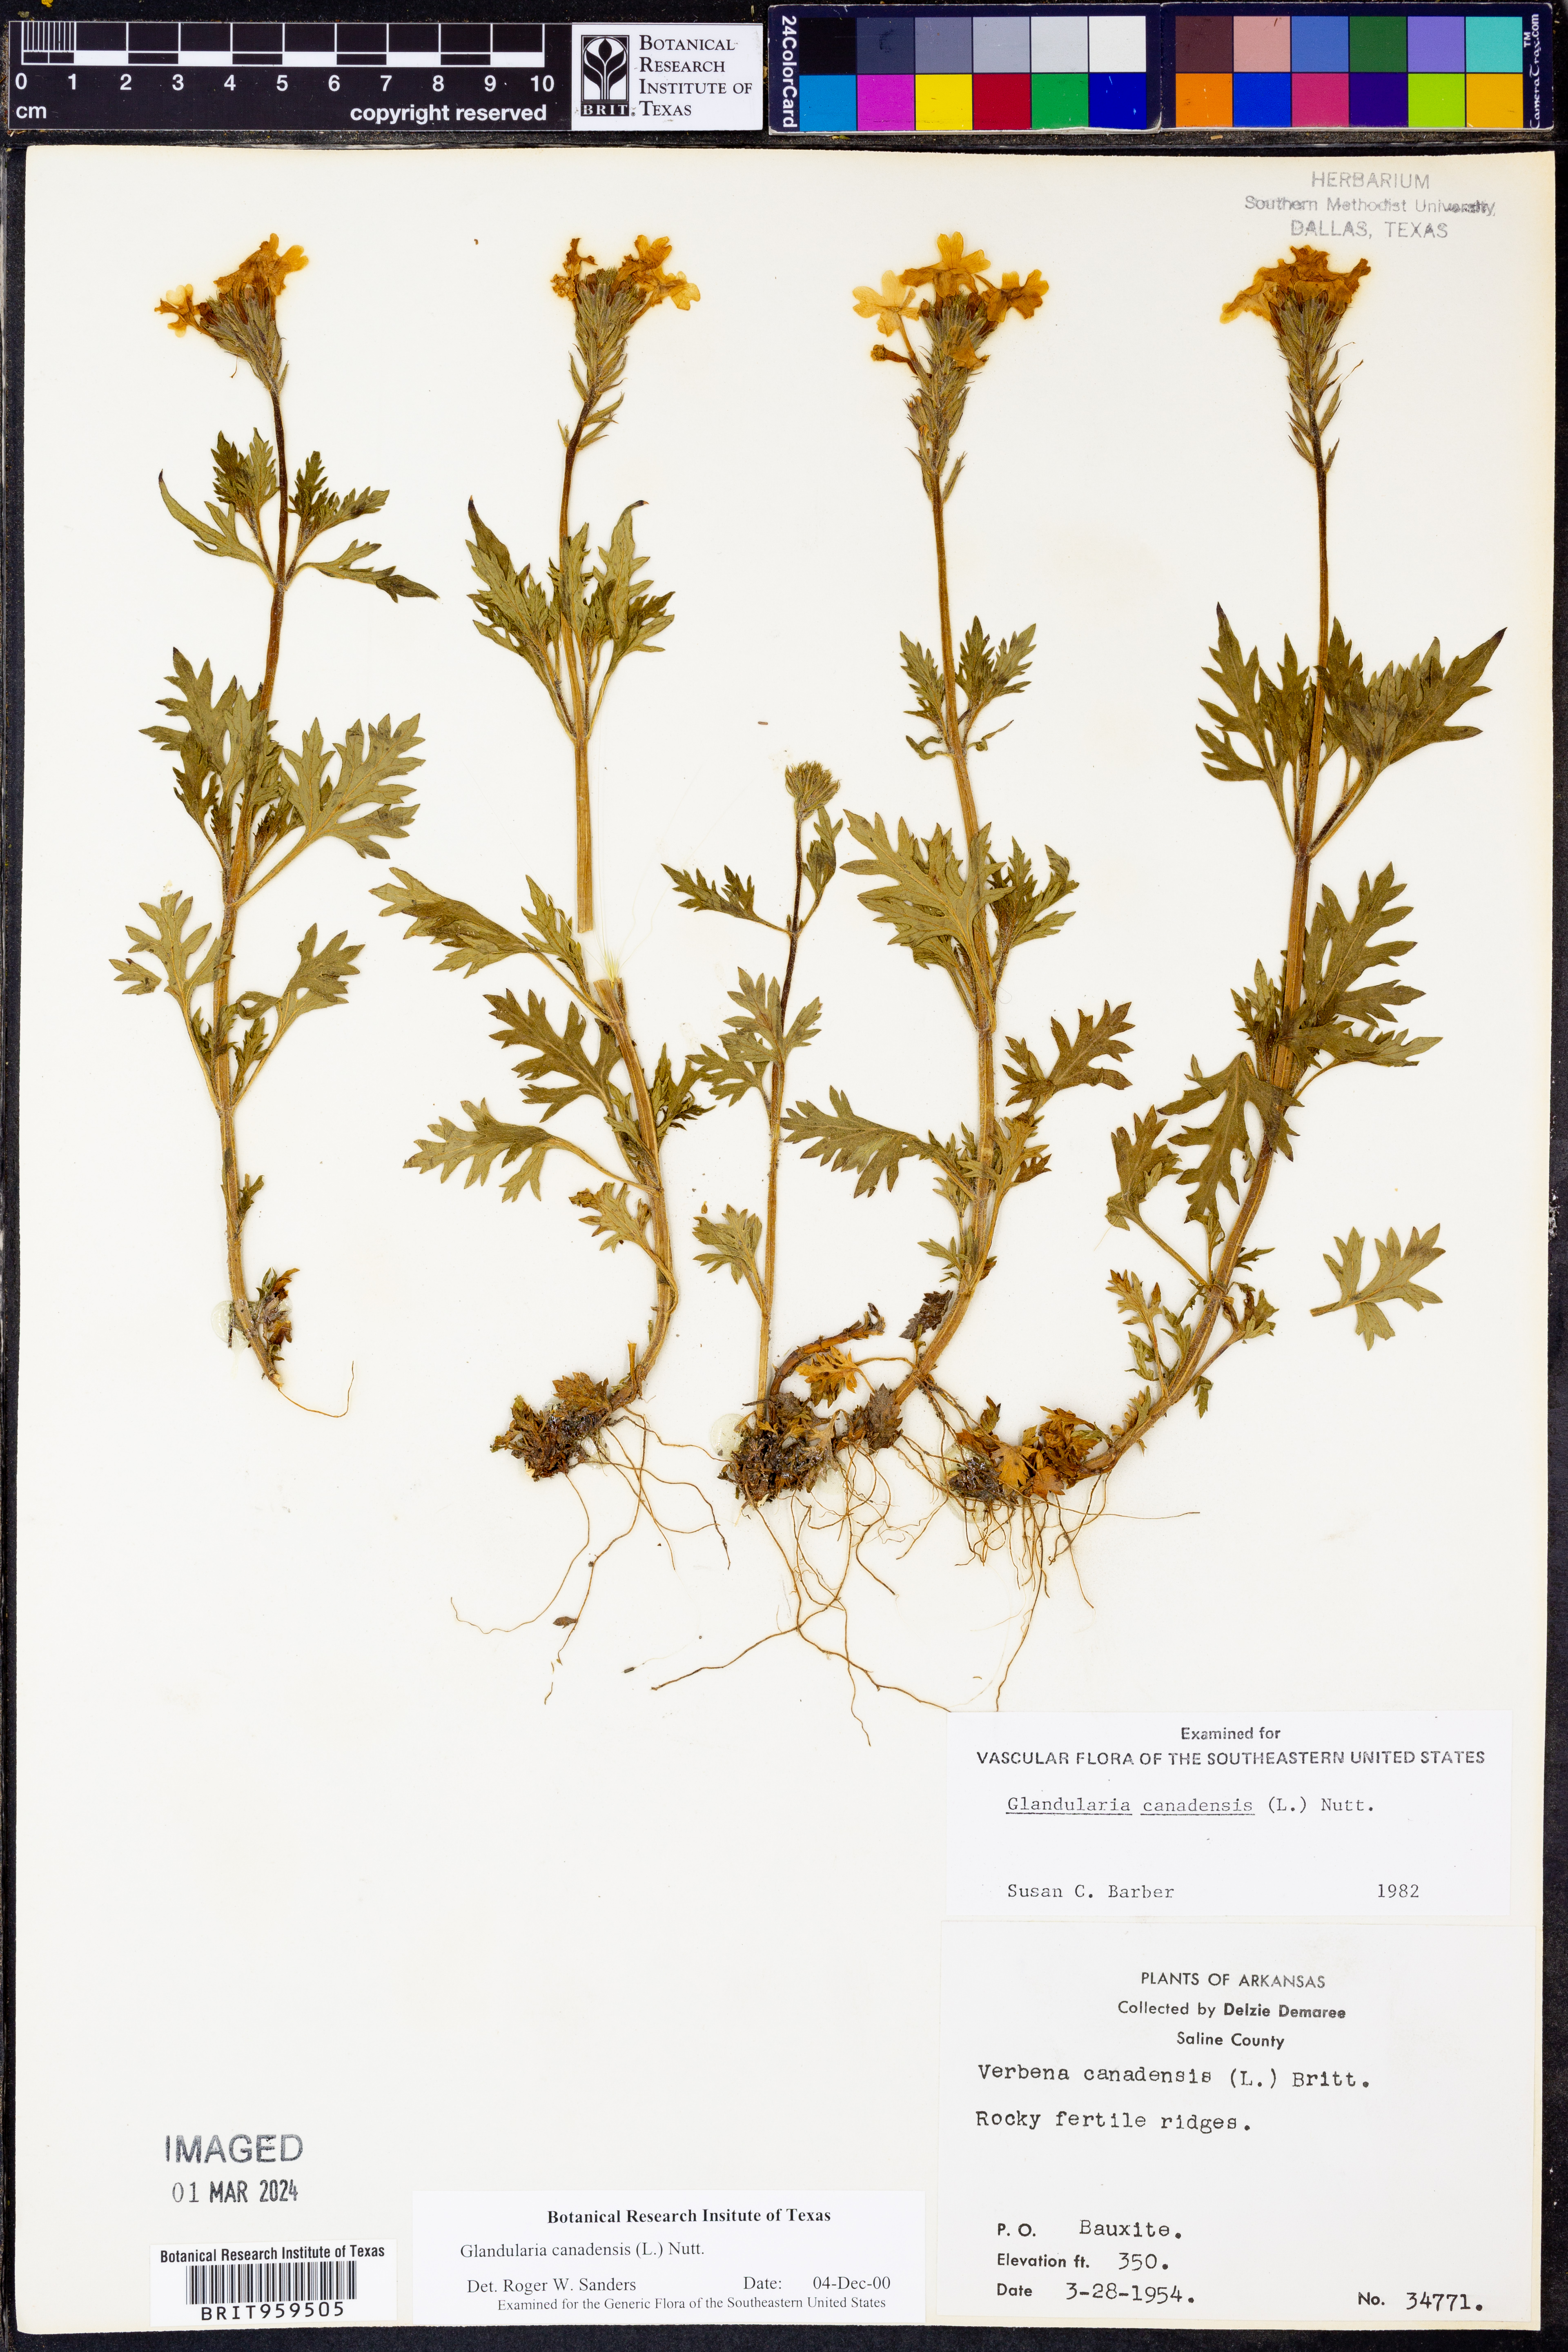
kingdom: Plantae
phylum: Tracheophyta
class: Magnoliopsida
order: Lamiales
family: Verbenaceae
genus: Verbena
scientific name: Verbena canadensis
